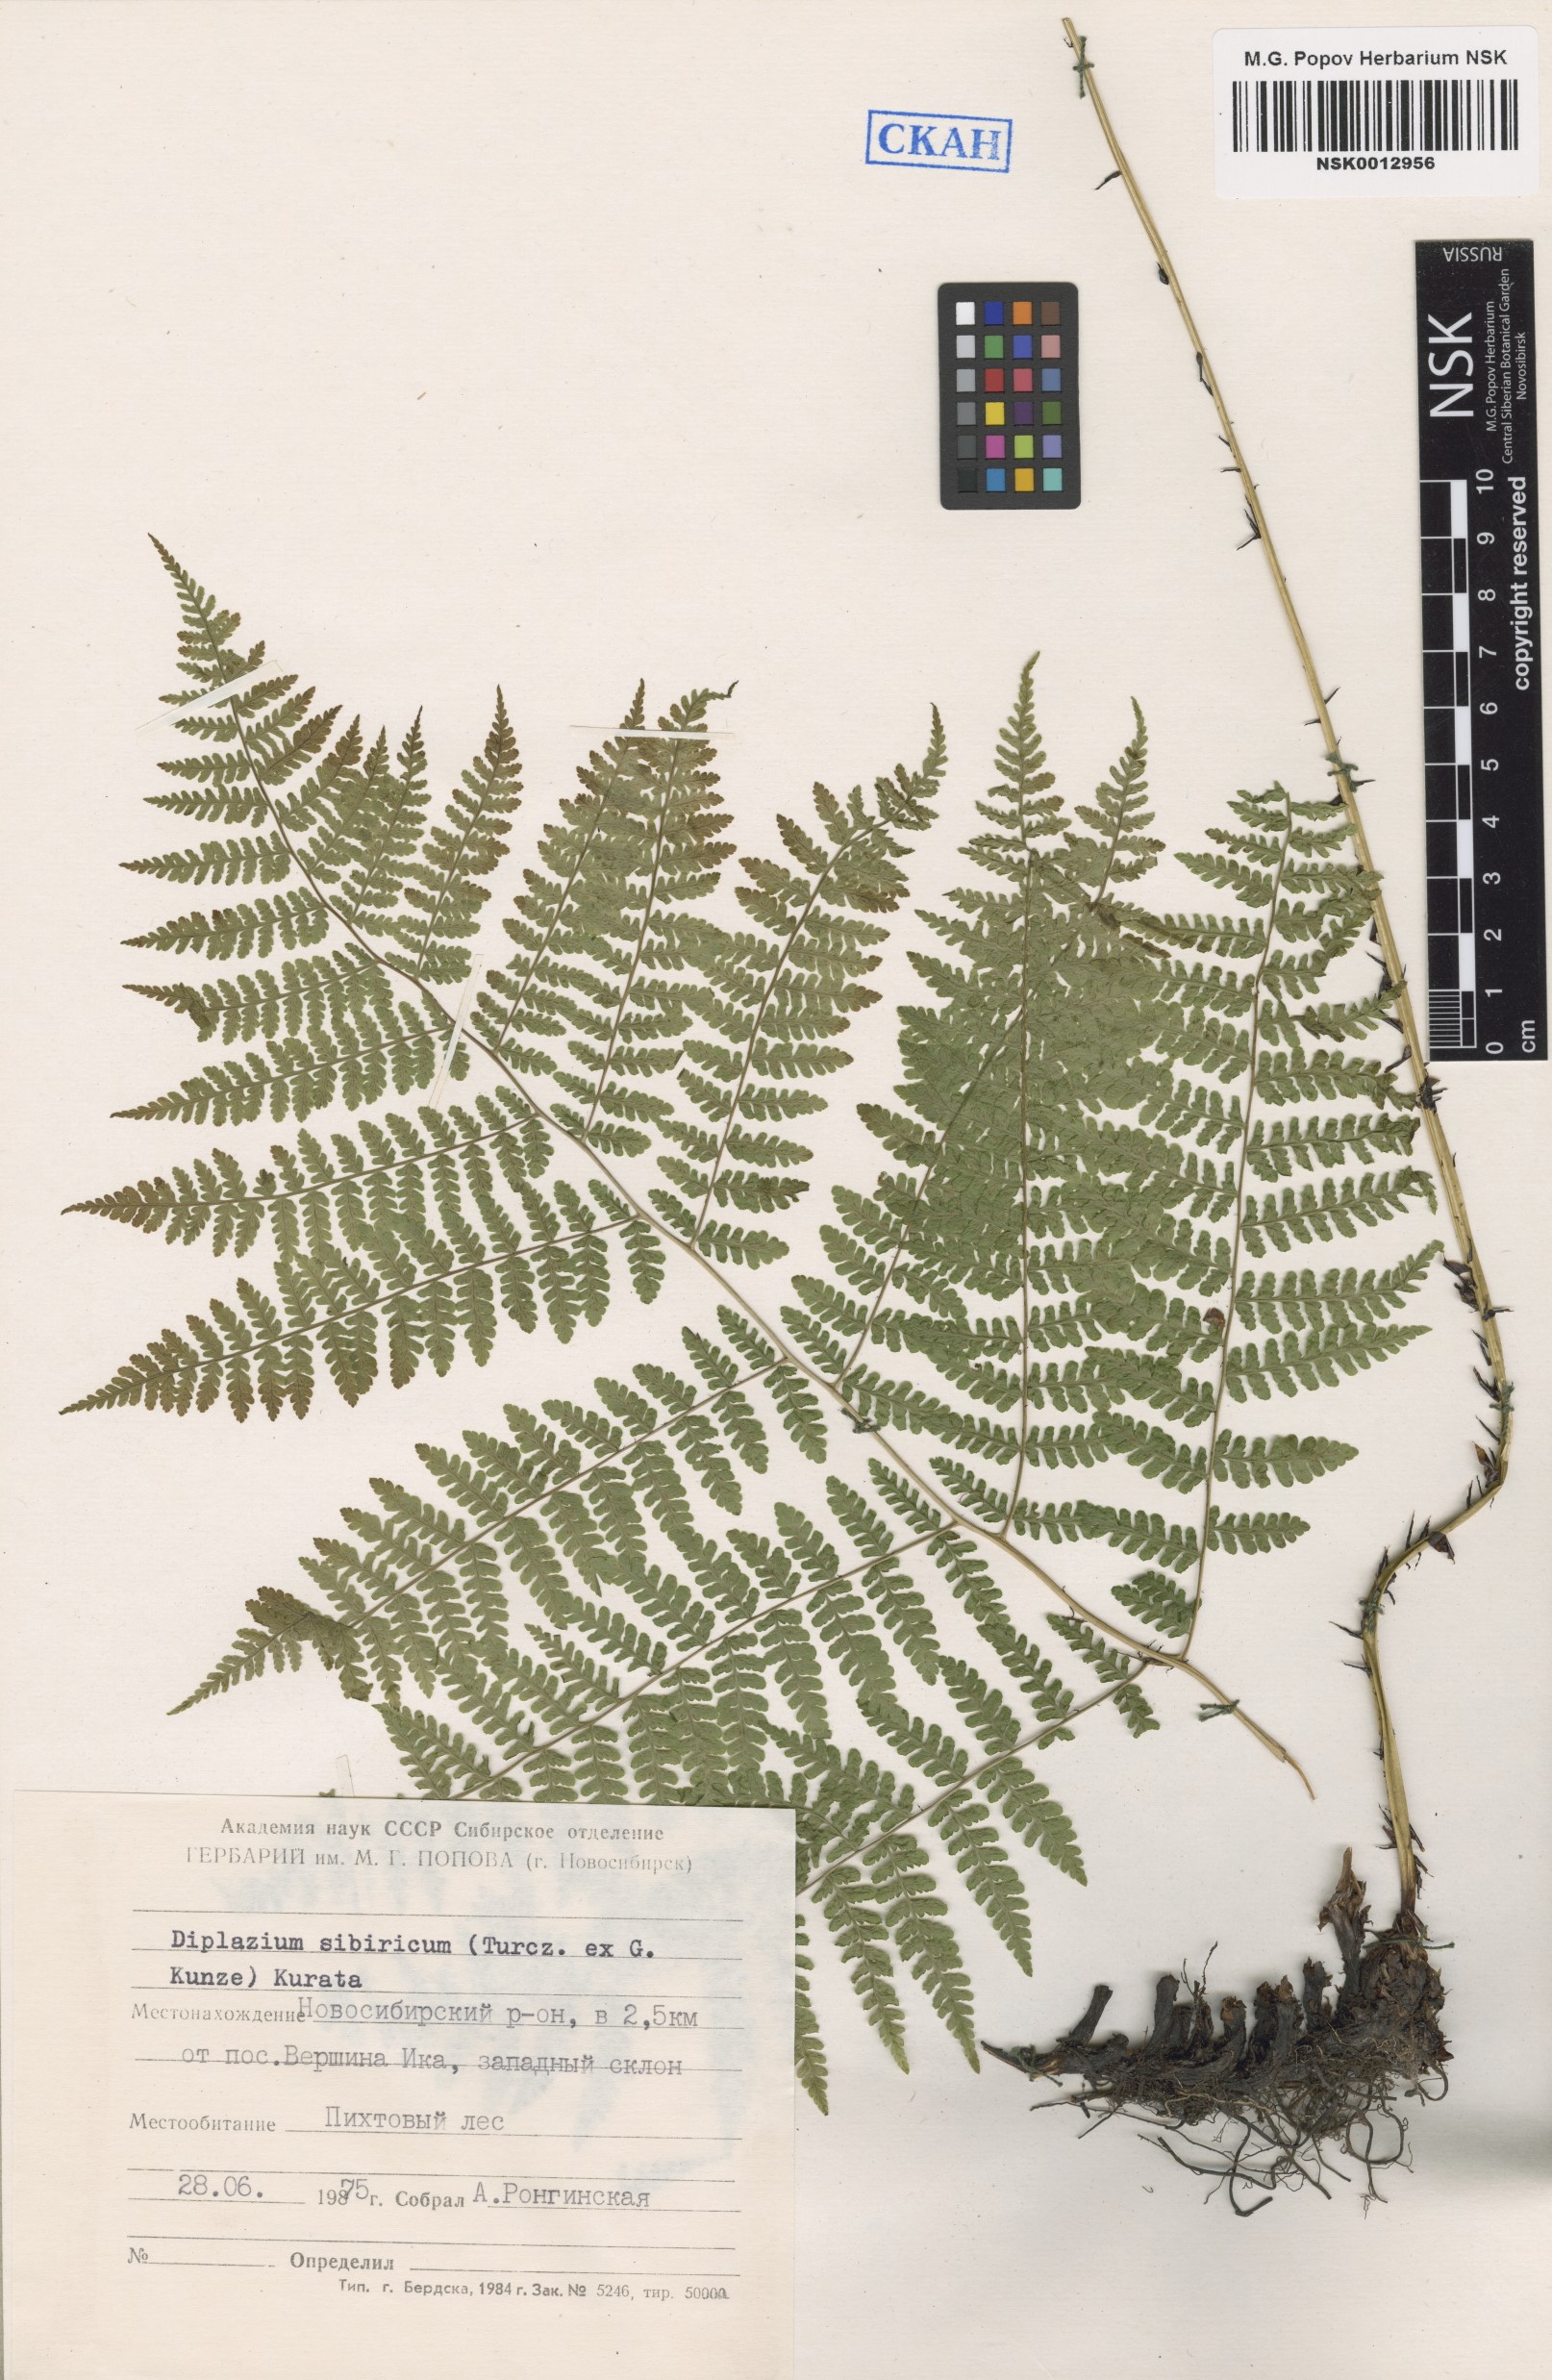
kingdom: Plantae
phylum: Tracheophyta
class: Polypodiopsida
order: Polypodiales
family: Athyriaceae
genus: Diplazium
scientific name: Diplazium sibiricum
